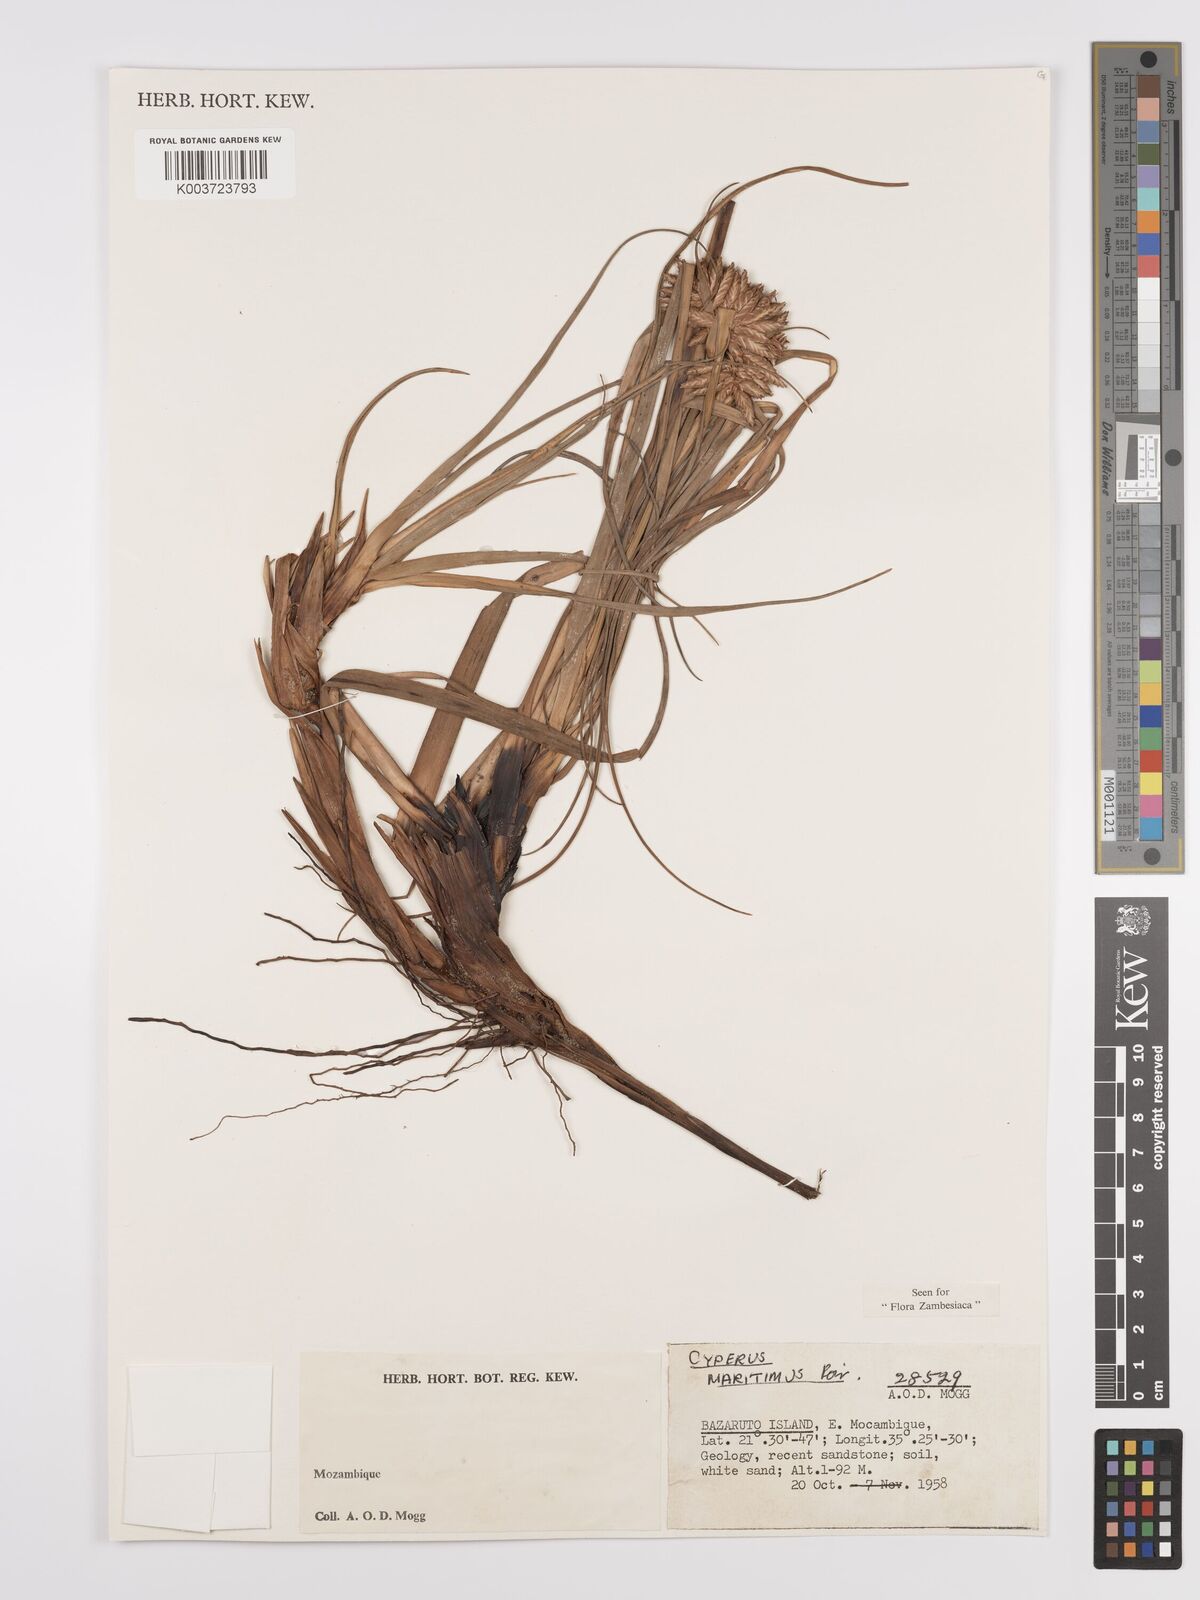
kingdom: Plantae
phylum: Tracheophyta
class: Liliopsida
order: Poales
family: Cyperaceae
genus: Cyperus
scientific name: Cyperus crassipes
